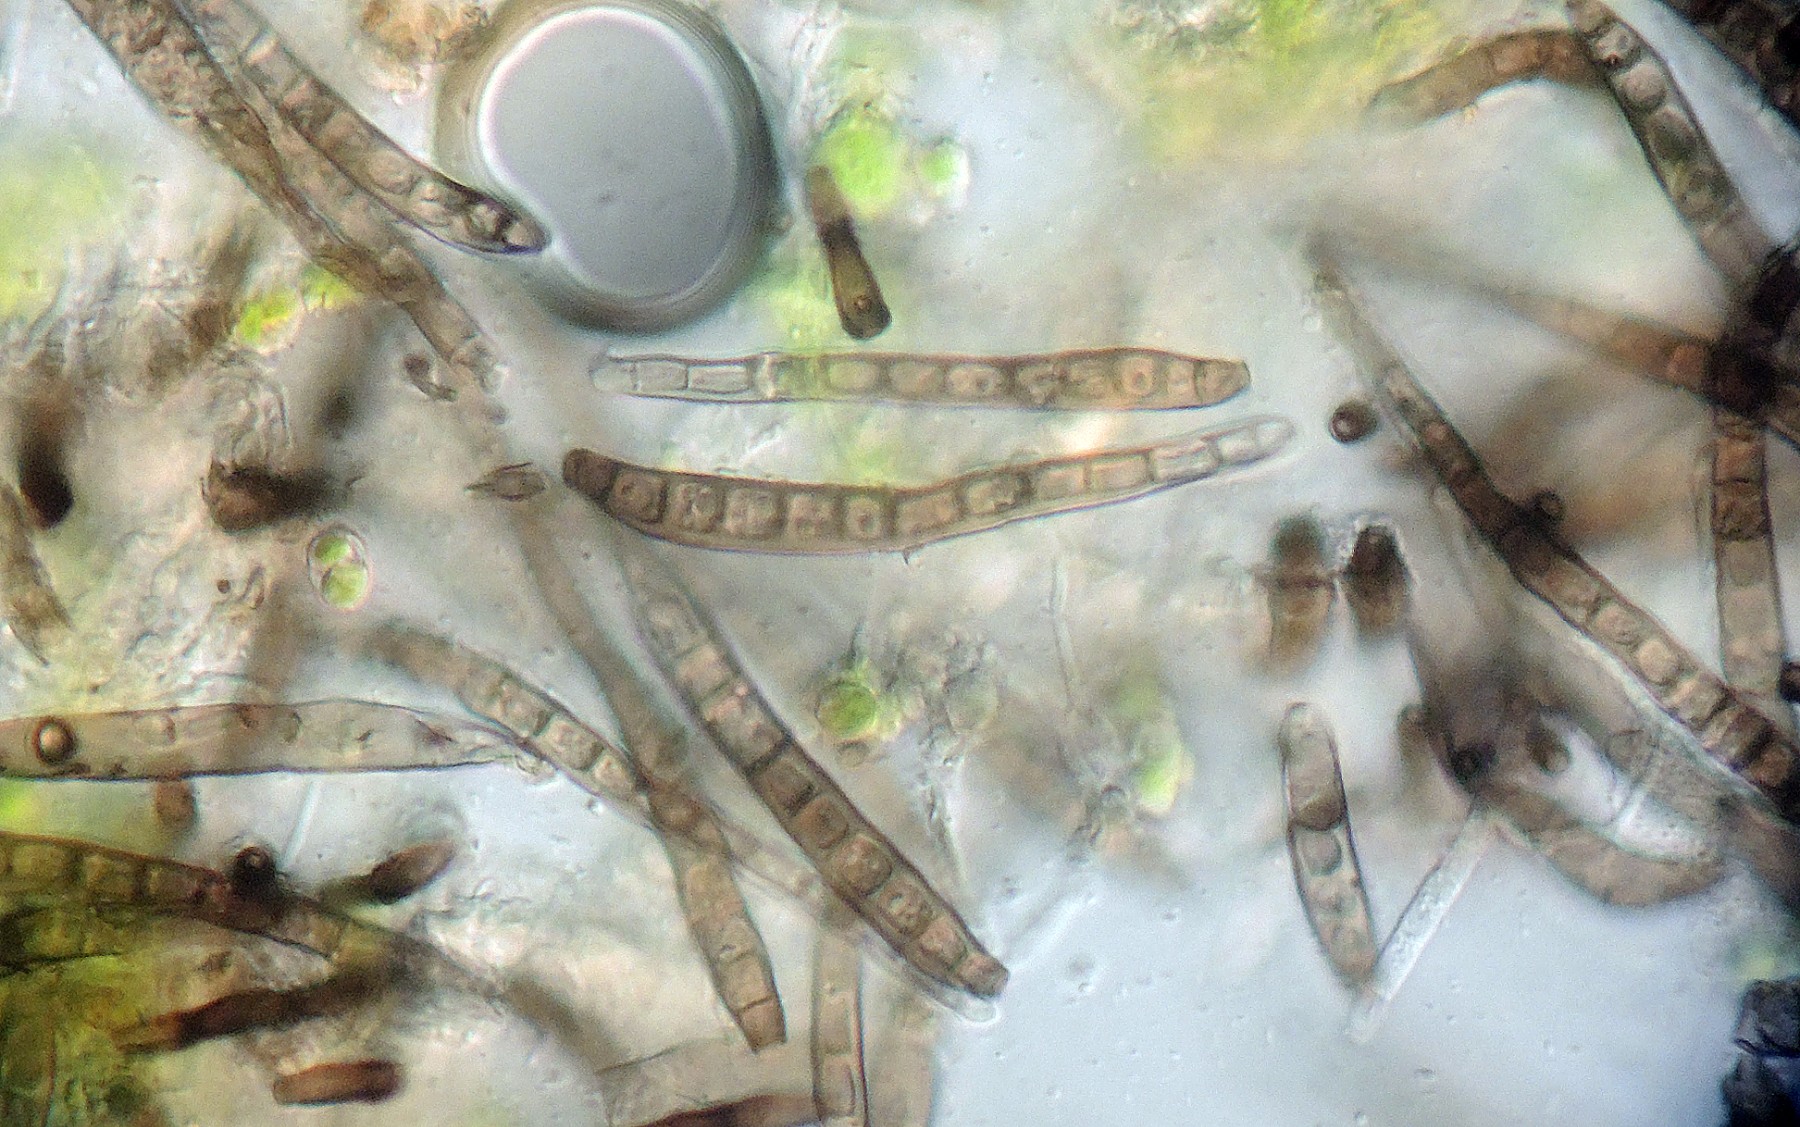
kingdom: Fungi
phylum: Ascomycota
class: Dothideomycetes
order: Pleosporales
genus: Sporidesmium
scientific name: Sporidesmium
